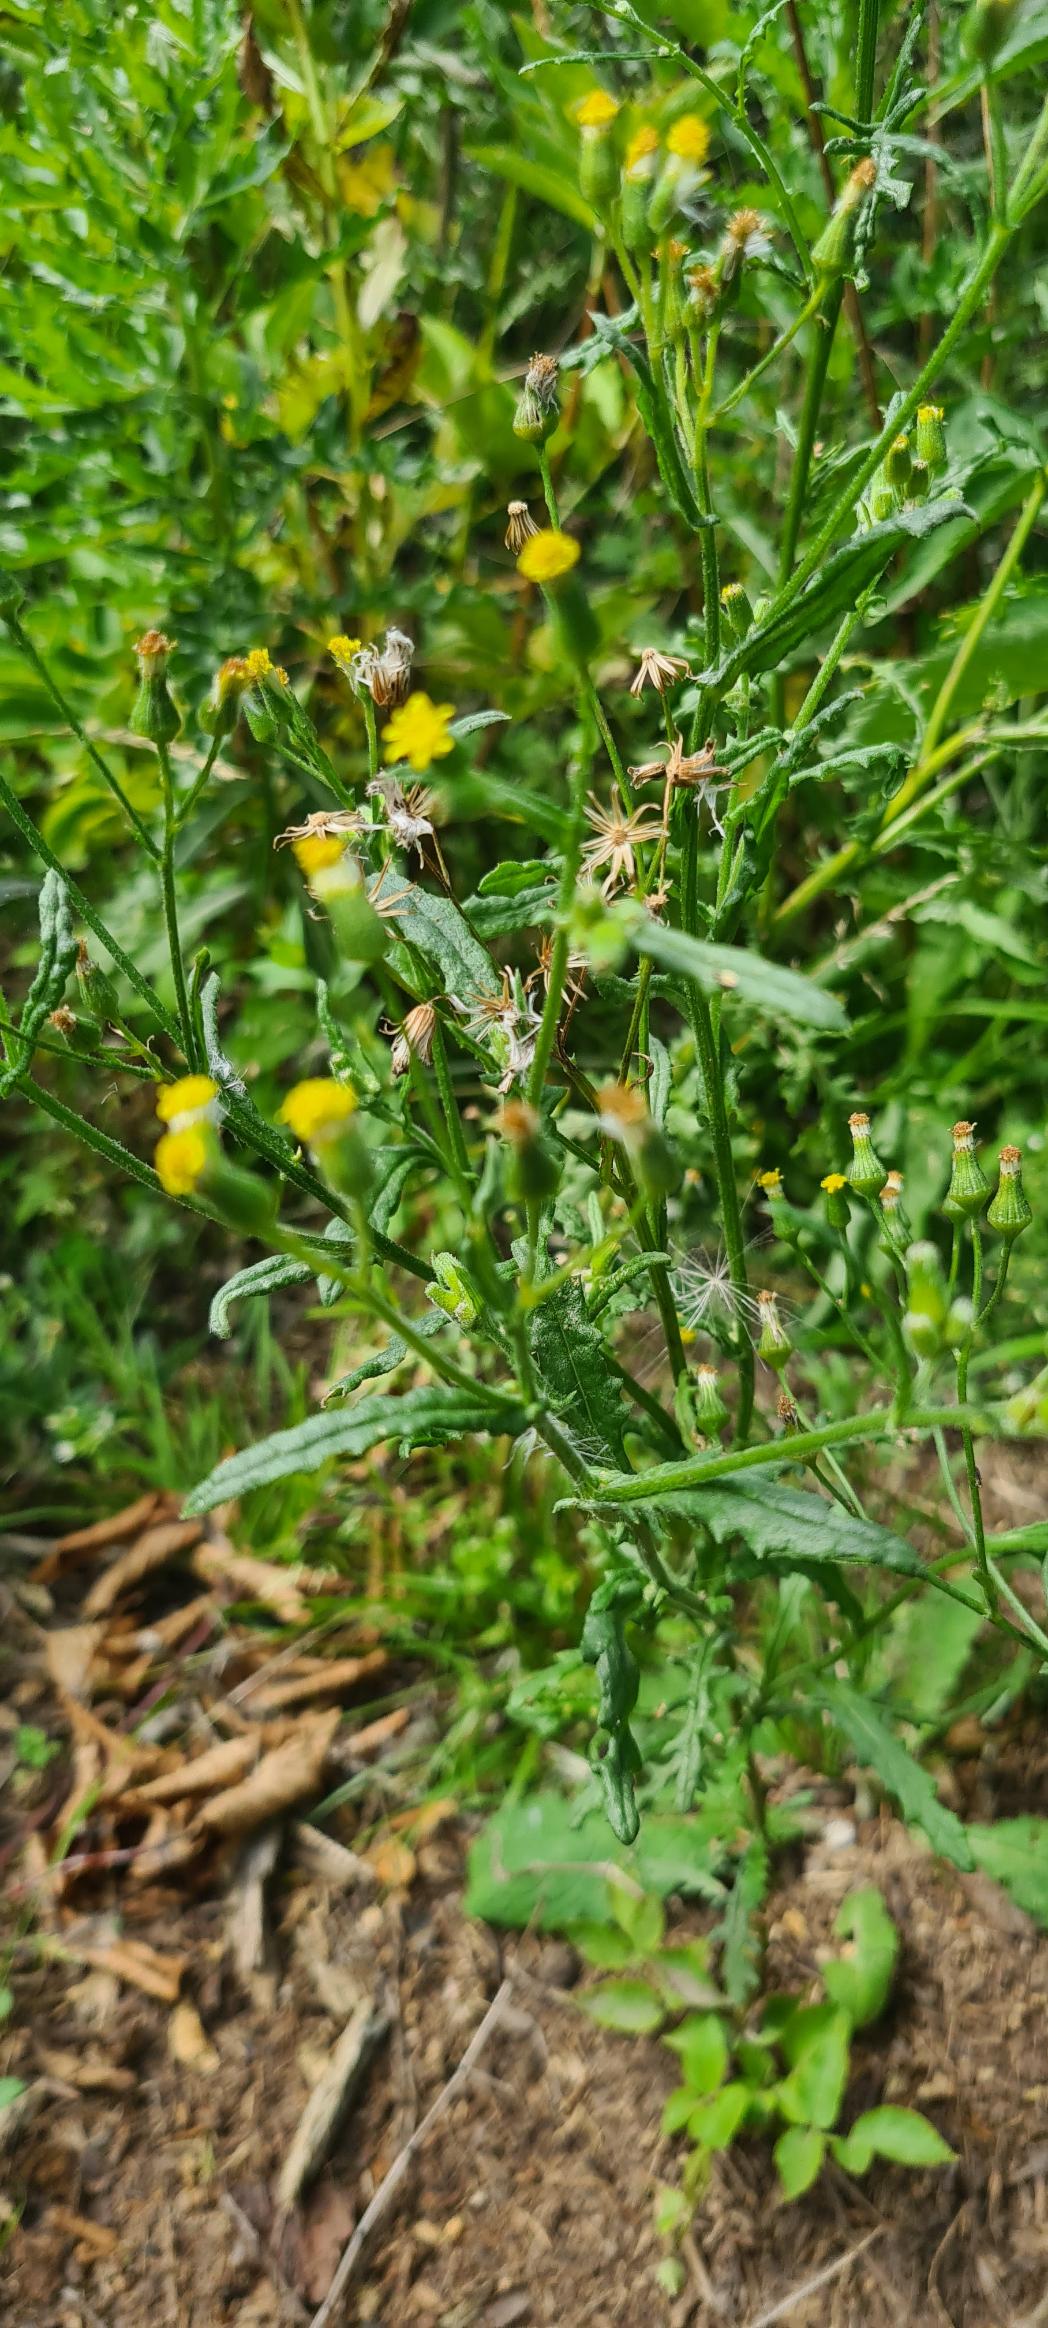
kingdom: Plantae
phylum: Tracheophyta
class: Magnoliopsida
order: Asterales
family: Asteraceae
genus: Senecio
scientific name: Senecio sylvaticus
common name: Skov-brandbæger
